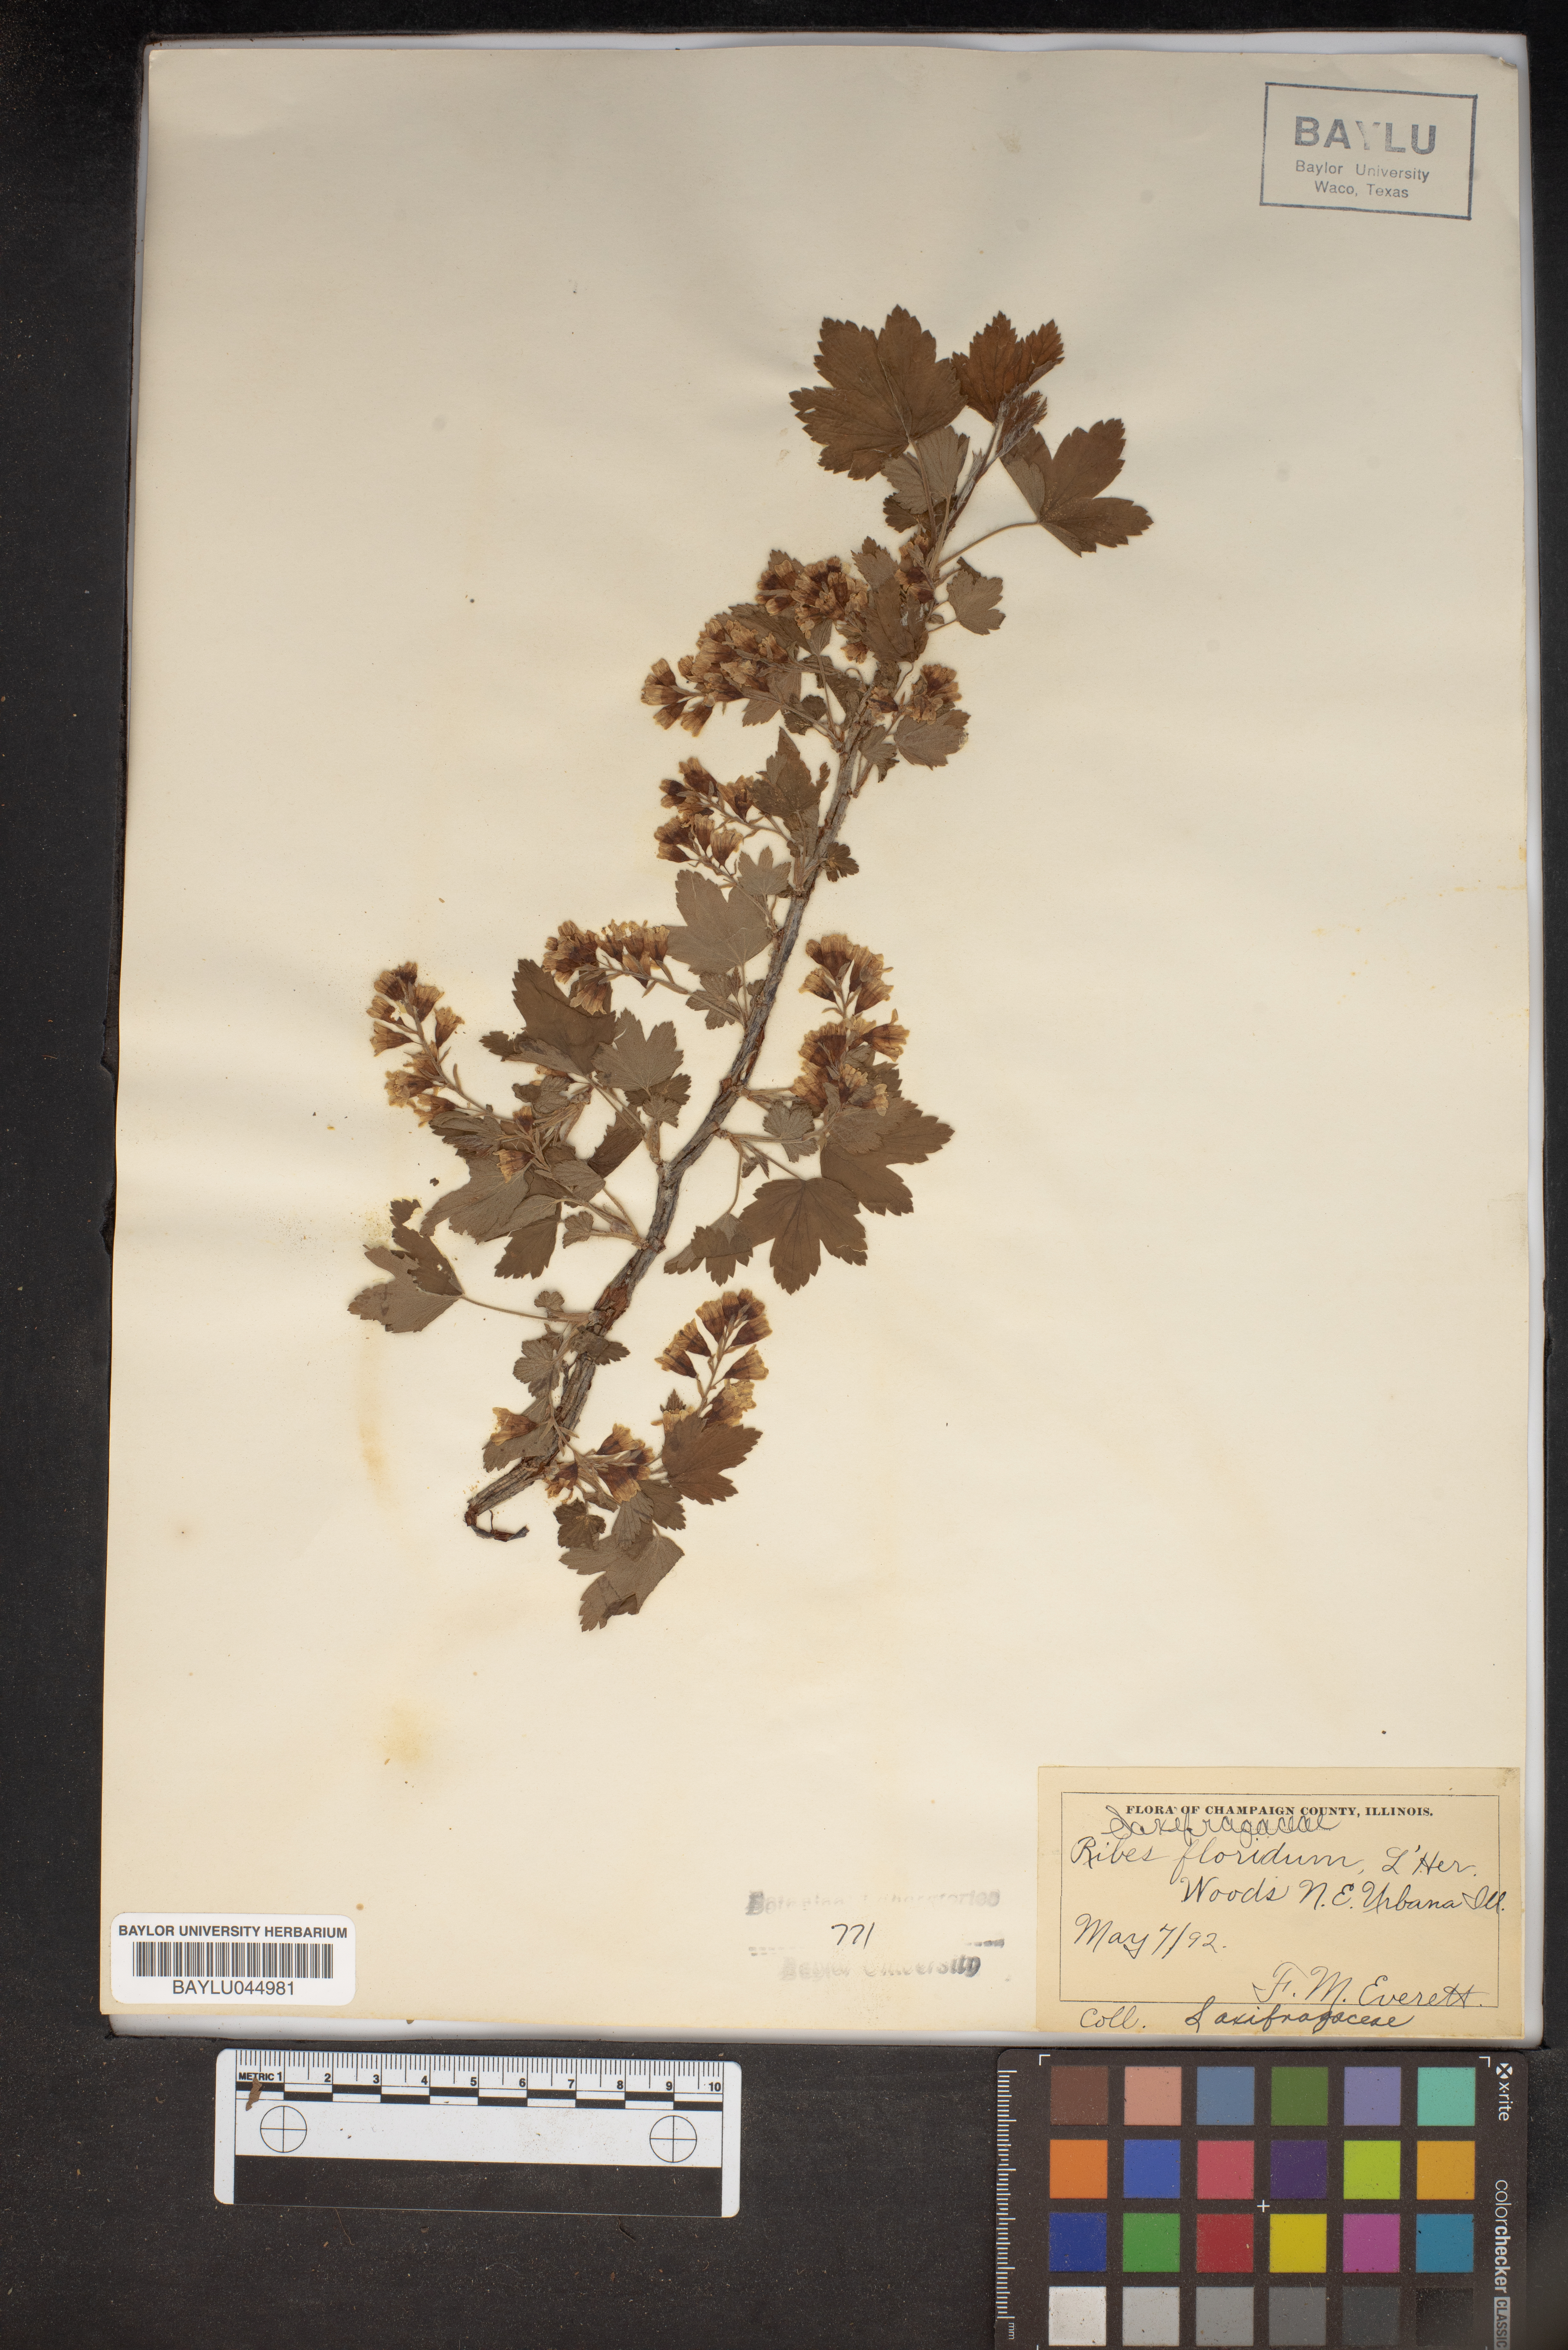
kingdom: Plantae
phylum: Tracheophyta
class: Magnoliopsida
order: Saxifragales
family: Grossulariaceae
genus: Ribes
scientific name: Ribes
